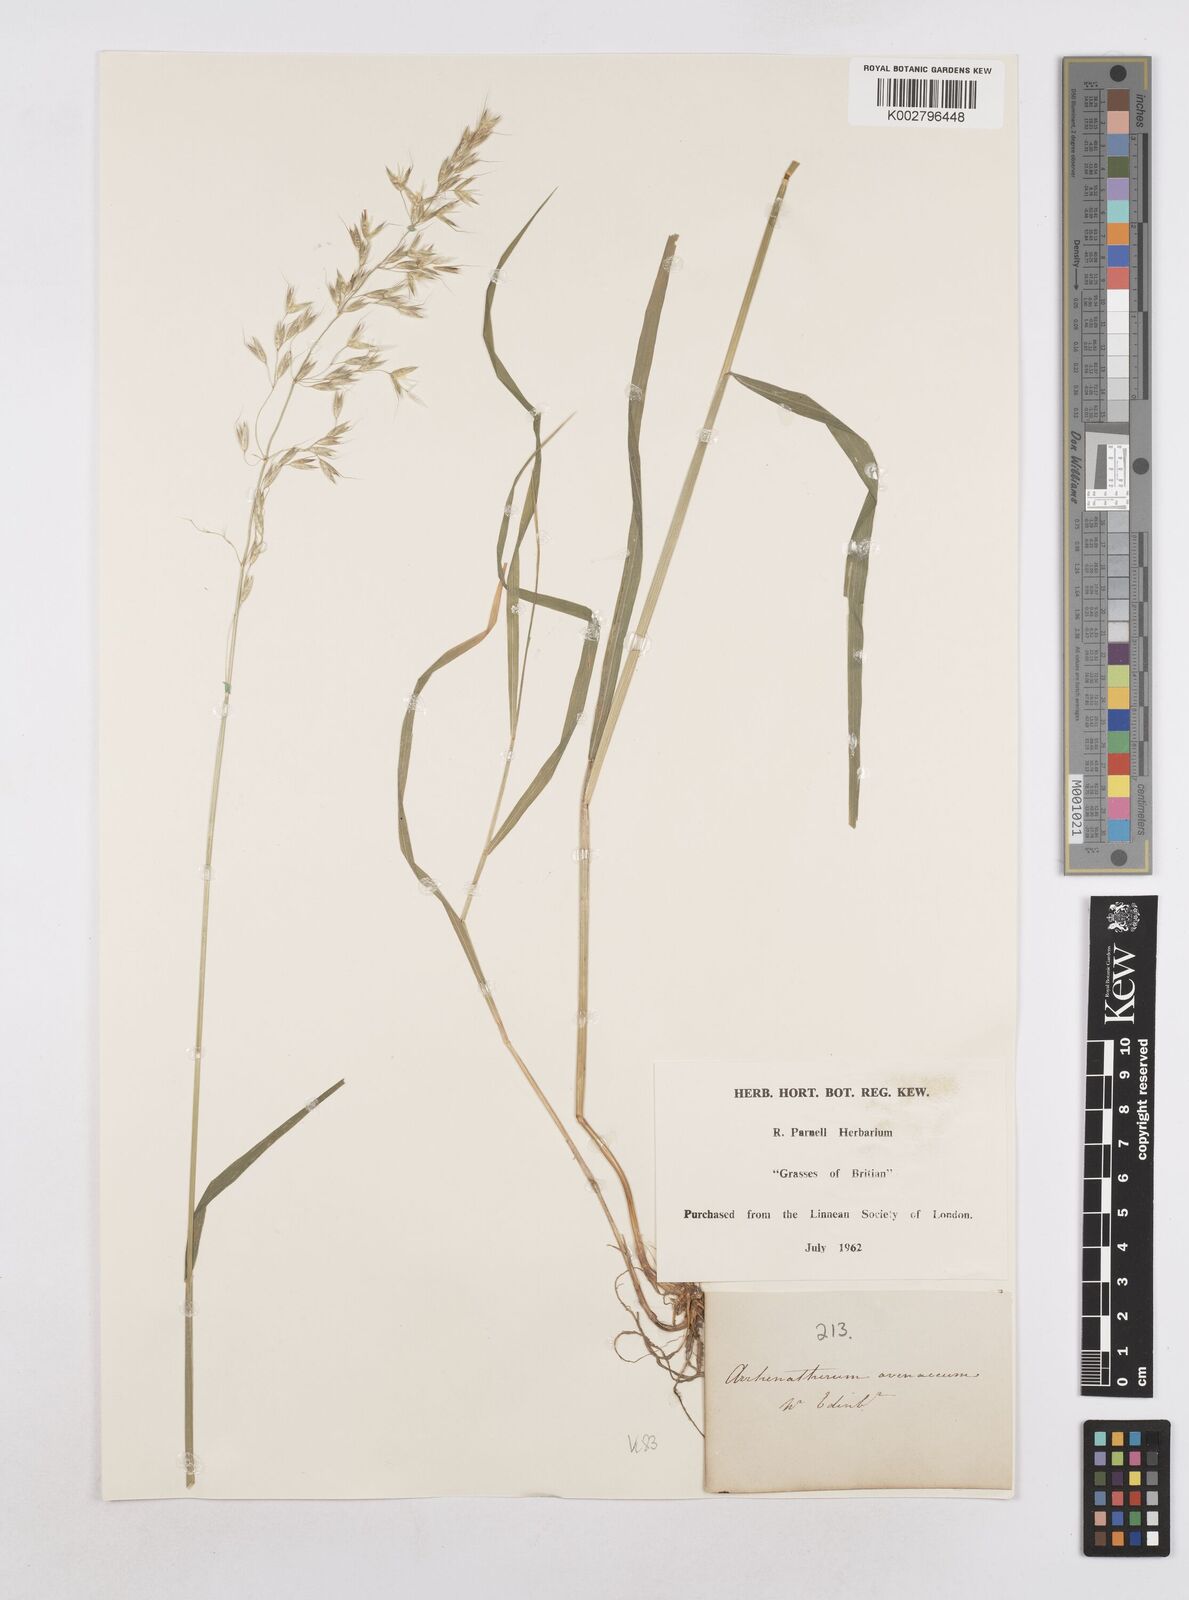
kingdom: Plantae
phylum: Tracheophyta
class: Liliopsida
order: Poales
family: Poaceae
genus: Arrhenatherum
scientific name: Arrhenatherum elatius
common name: Tall oatgrass
